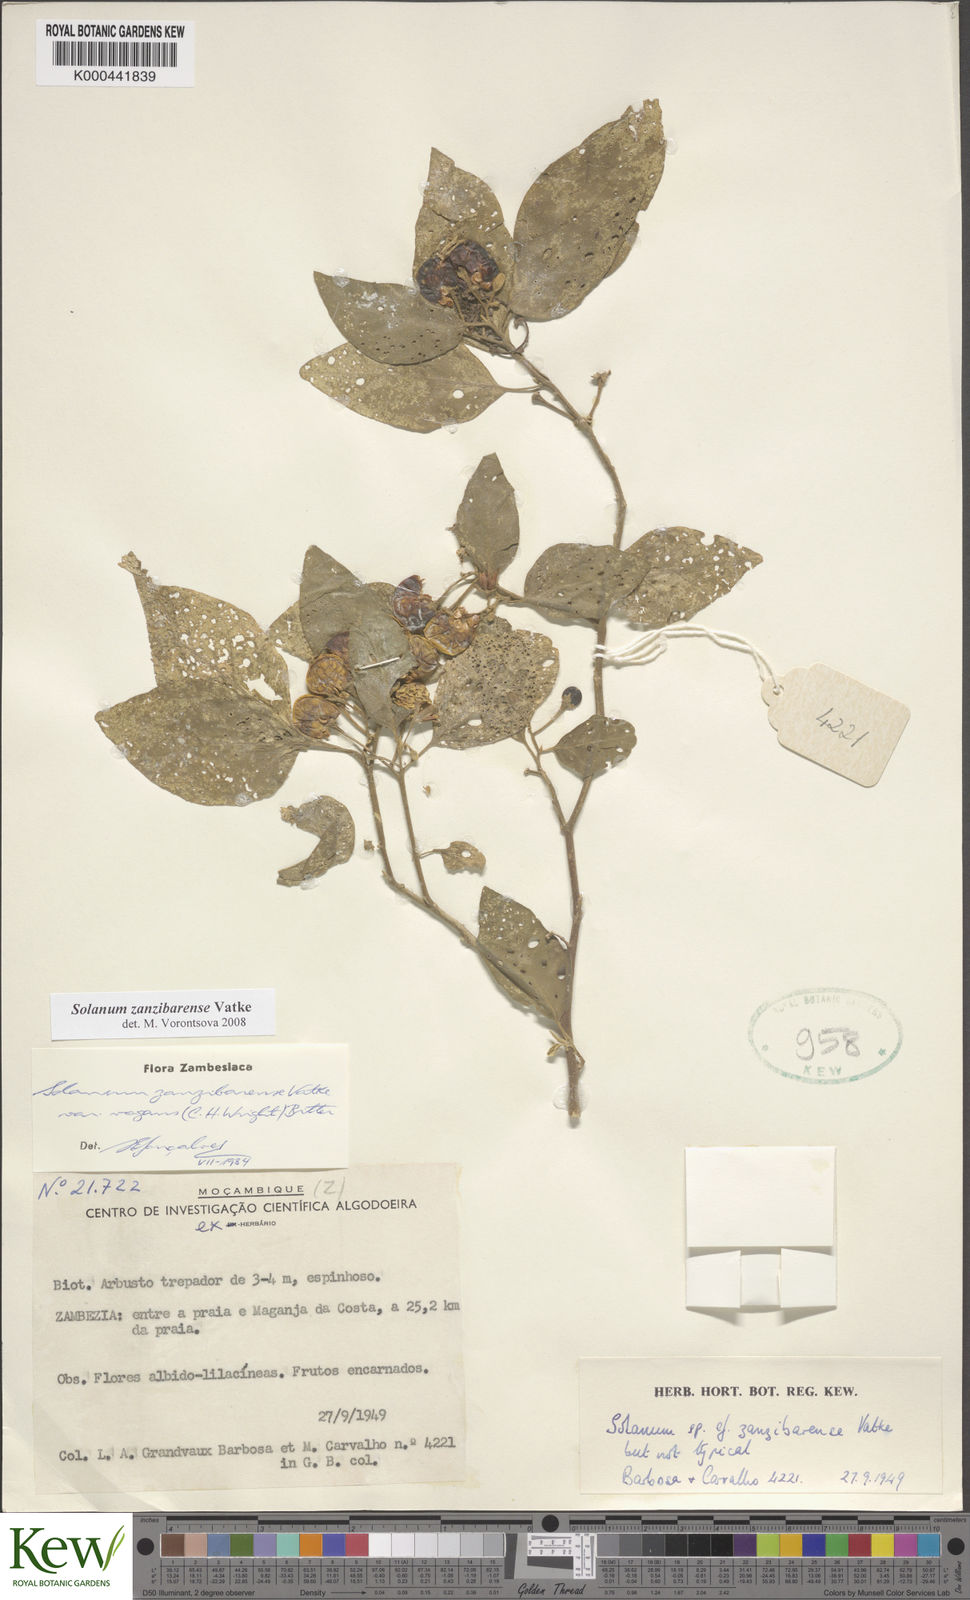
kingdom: Plantae
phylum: Tracheophyta
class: Magnoliopsida
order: Solanales
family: Solanaceae
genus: Solanum
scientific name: Solanum zanzibarense
